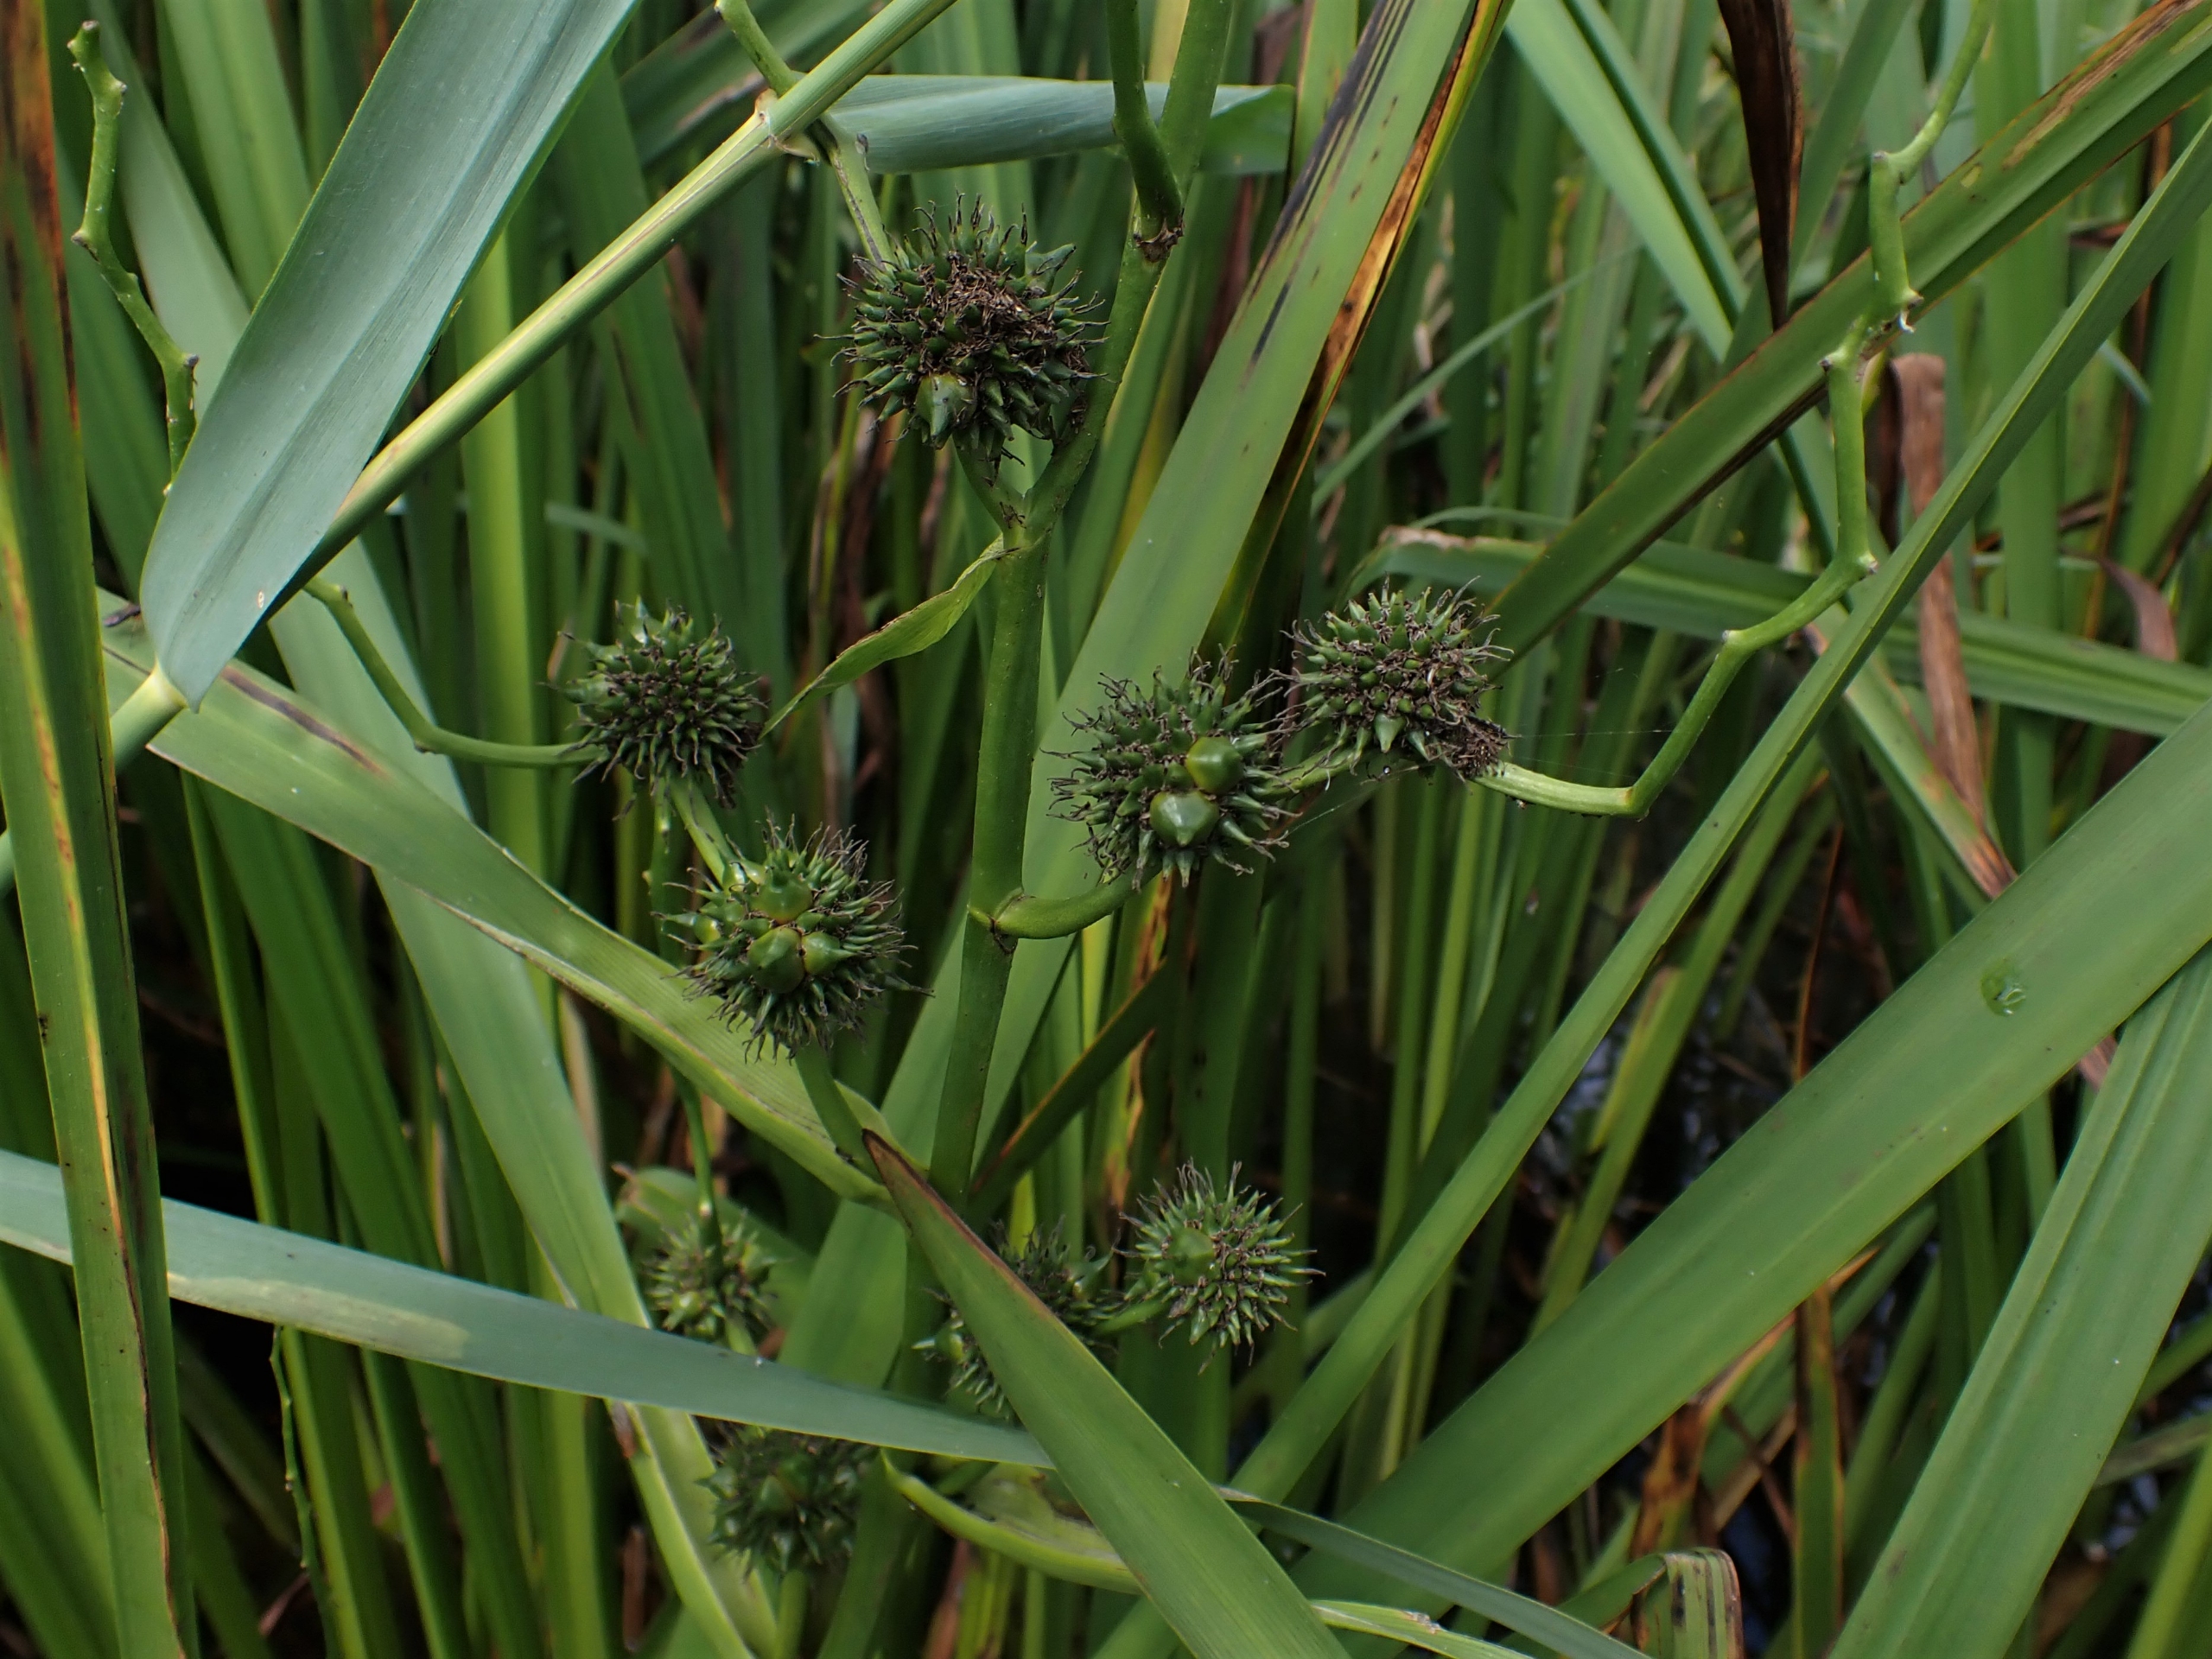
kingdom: Plantae
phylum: Tracheophyta
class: Liliopsida
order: Poales
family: Typhaceae
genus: Sparganium
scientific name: Sparganium erectum
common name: Grenet pindsvineknop
